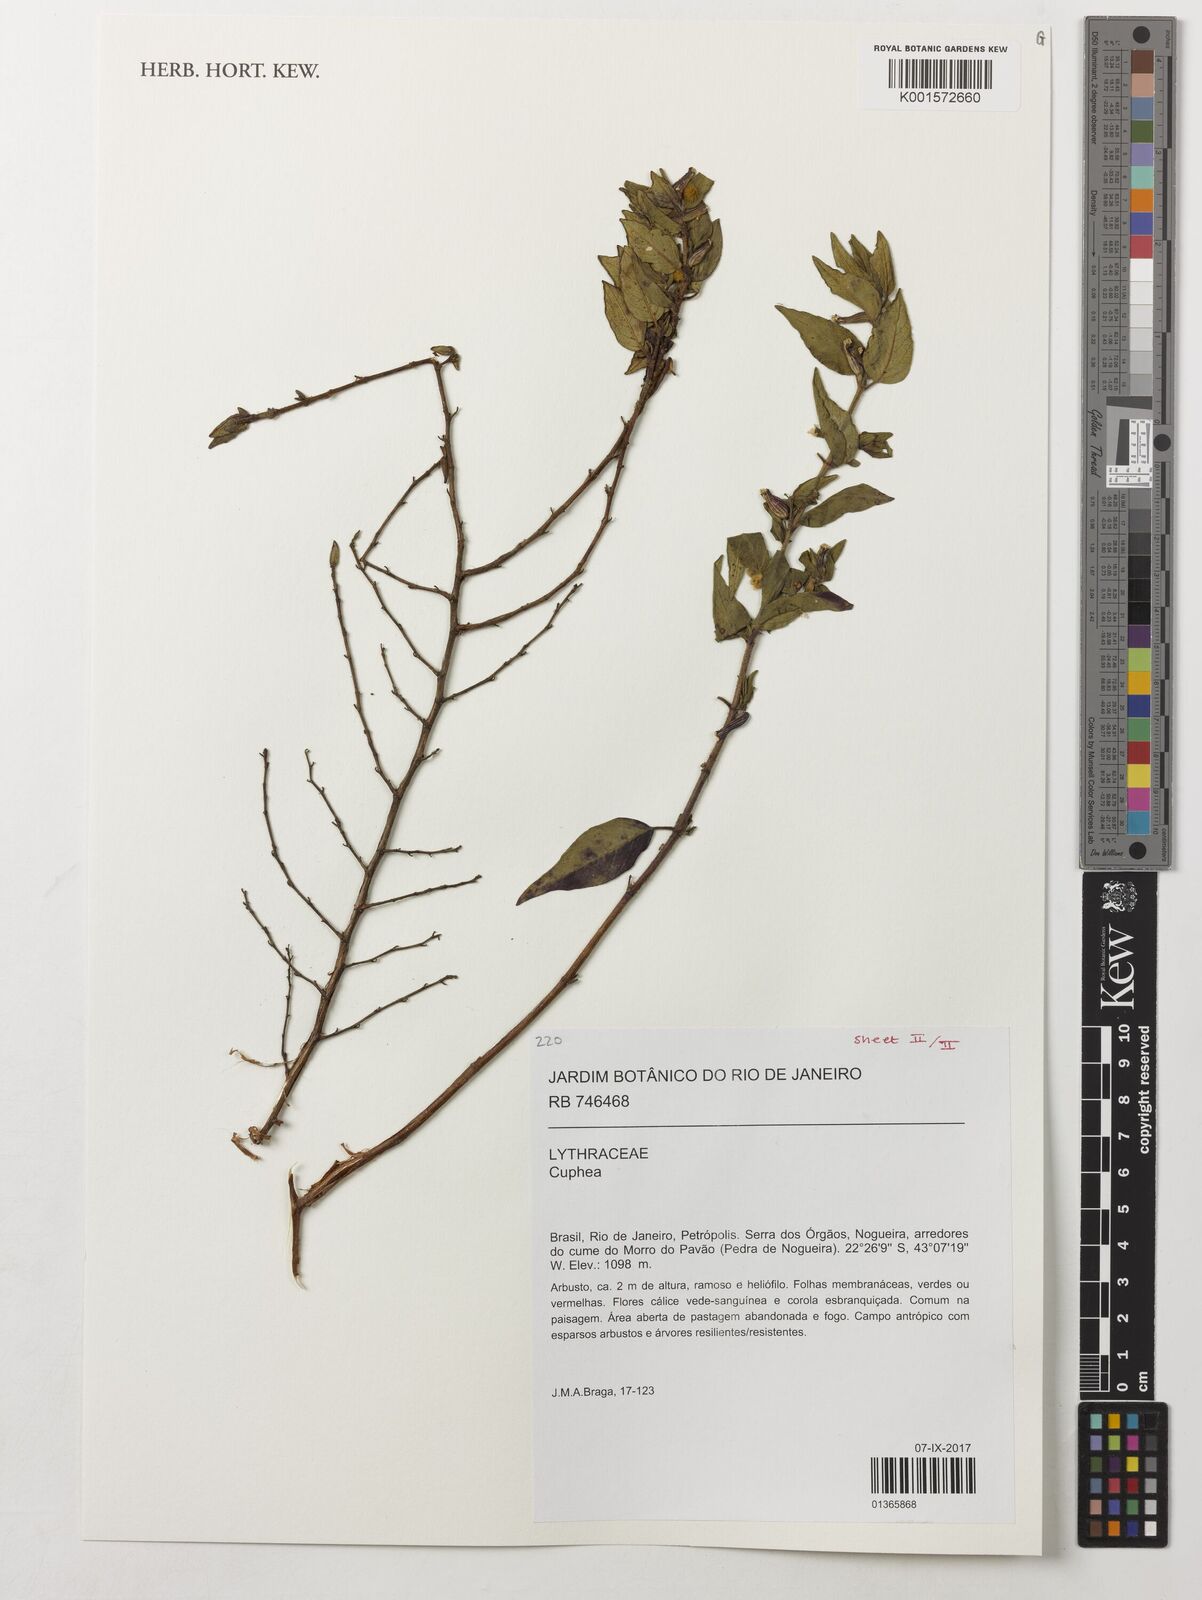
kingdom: Plantae
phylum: Tracheophyta
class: Magnoliopsida
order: Myrtales
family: Lythraceae
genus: Cuphea
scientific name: Cuphea
